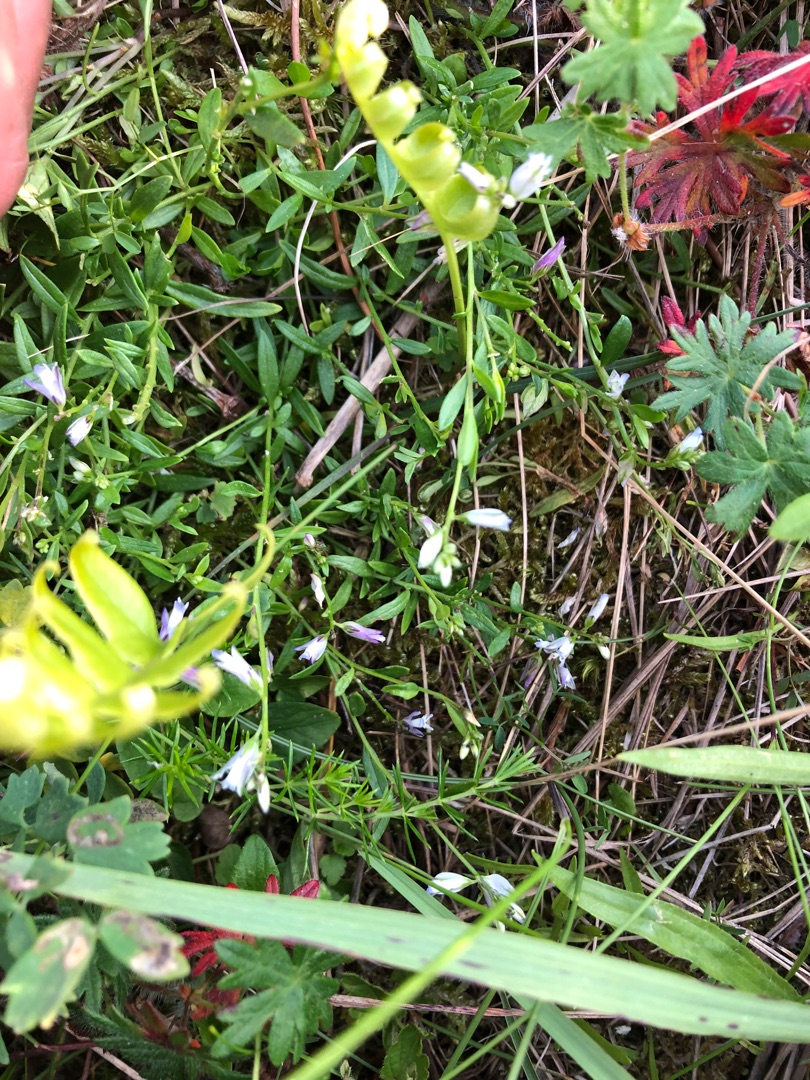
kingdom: Plantae
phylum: Tracheophyta
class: Magnoliopsida
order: Fabales
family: Polygalaceae
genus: Polygala
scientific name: Polygala vulgaris
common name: Almindelig mælkeurt
